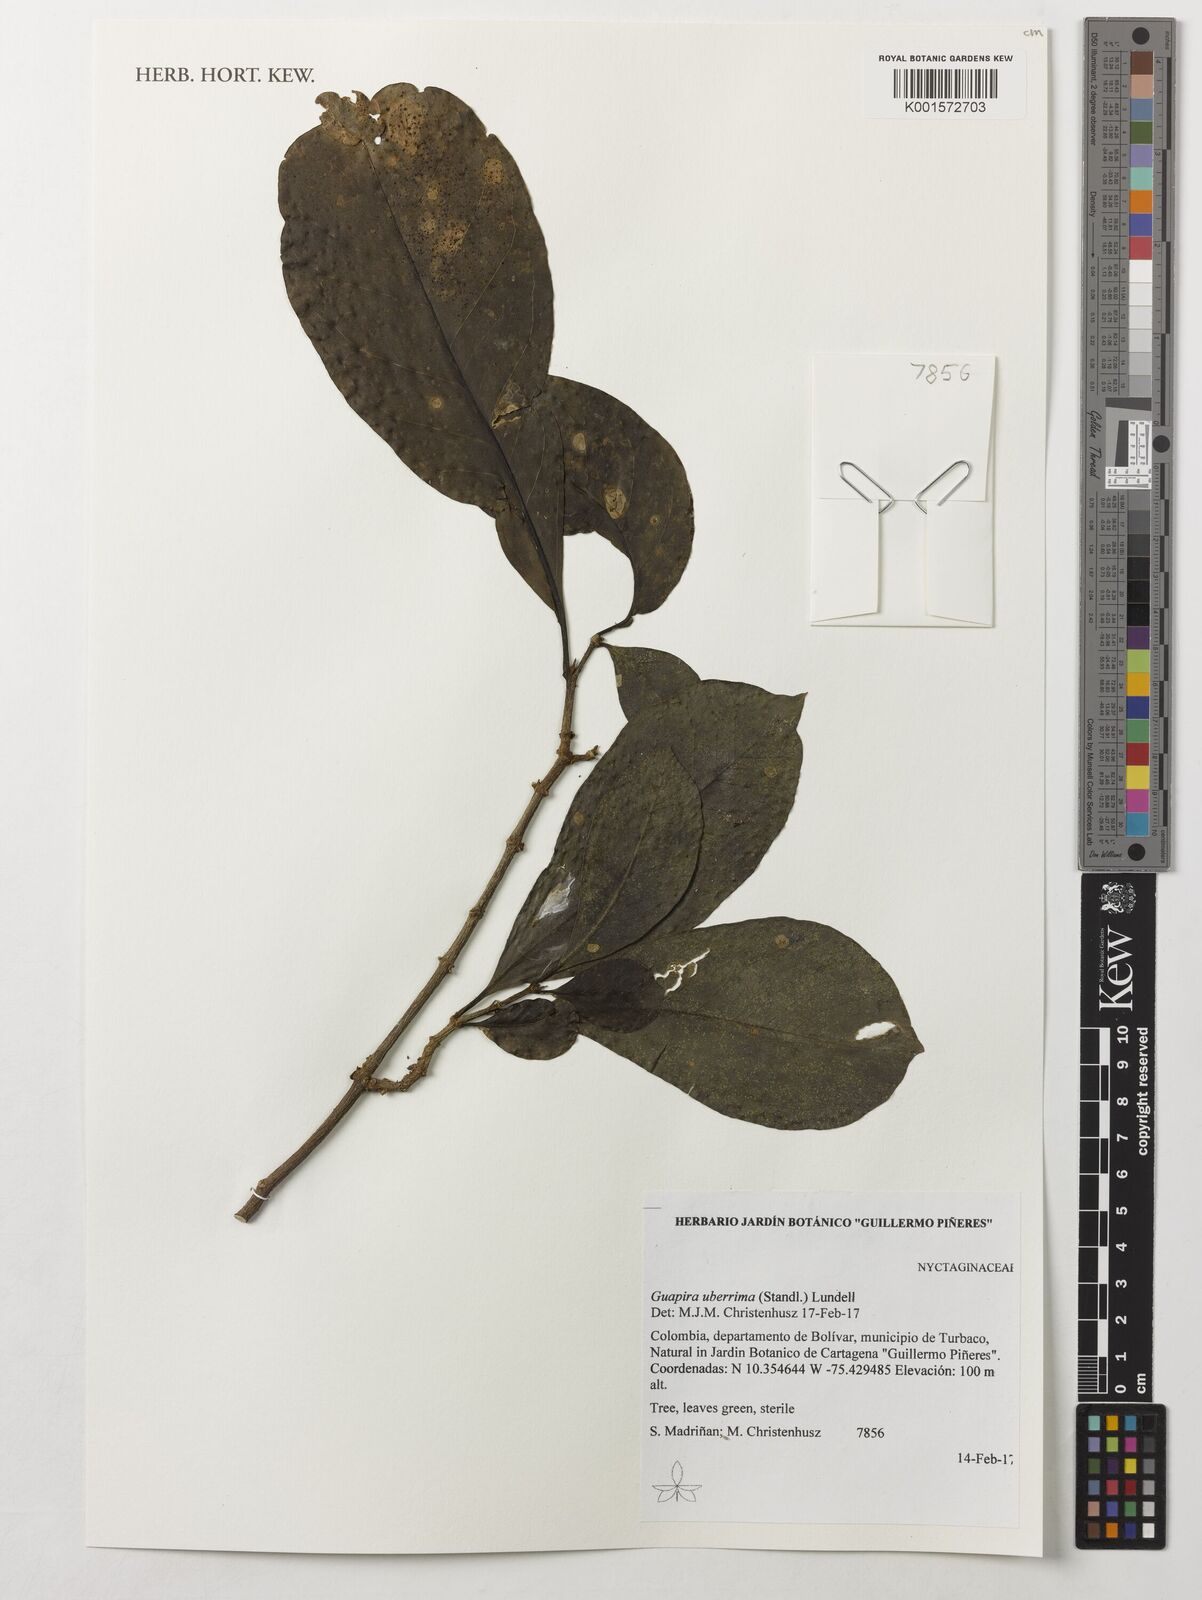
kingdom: Plantae
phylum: Tracheophyta
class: Magnoliopsida
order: Caryophyllales
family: Nyctaginaceae
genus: Guapira
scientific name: Guapira uberrima
